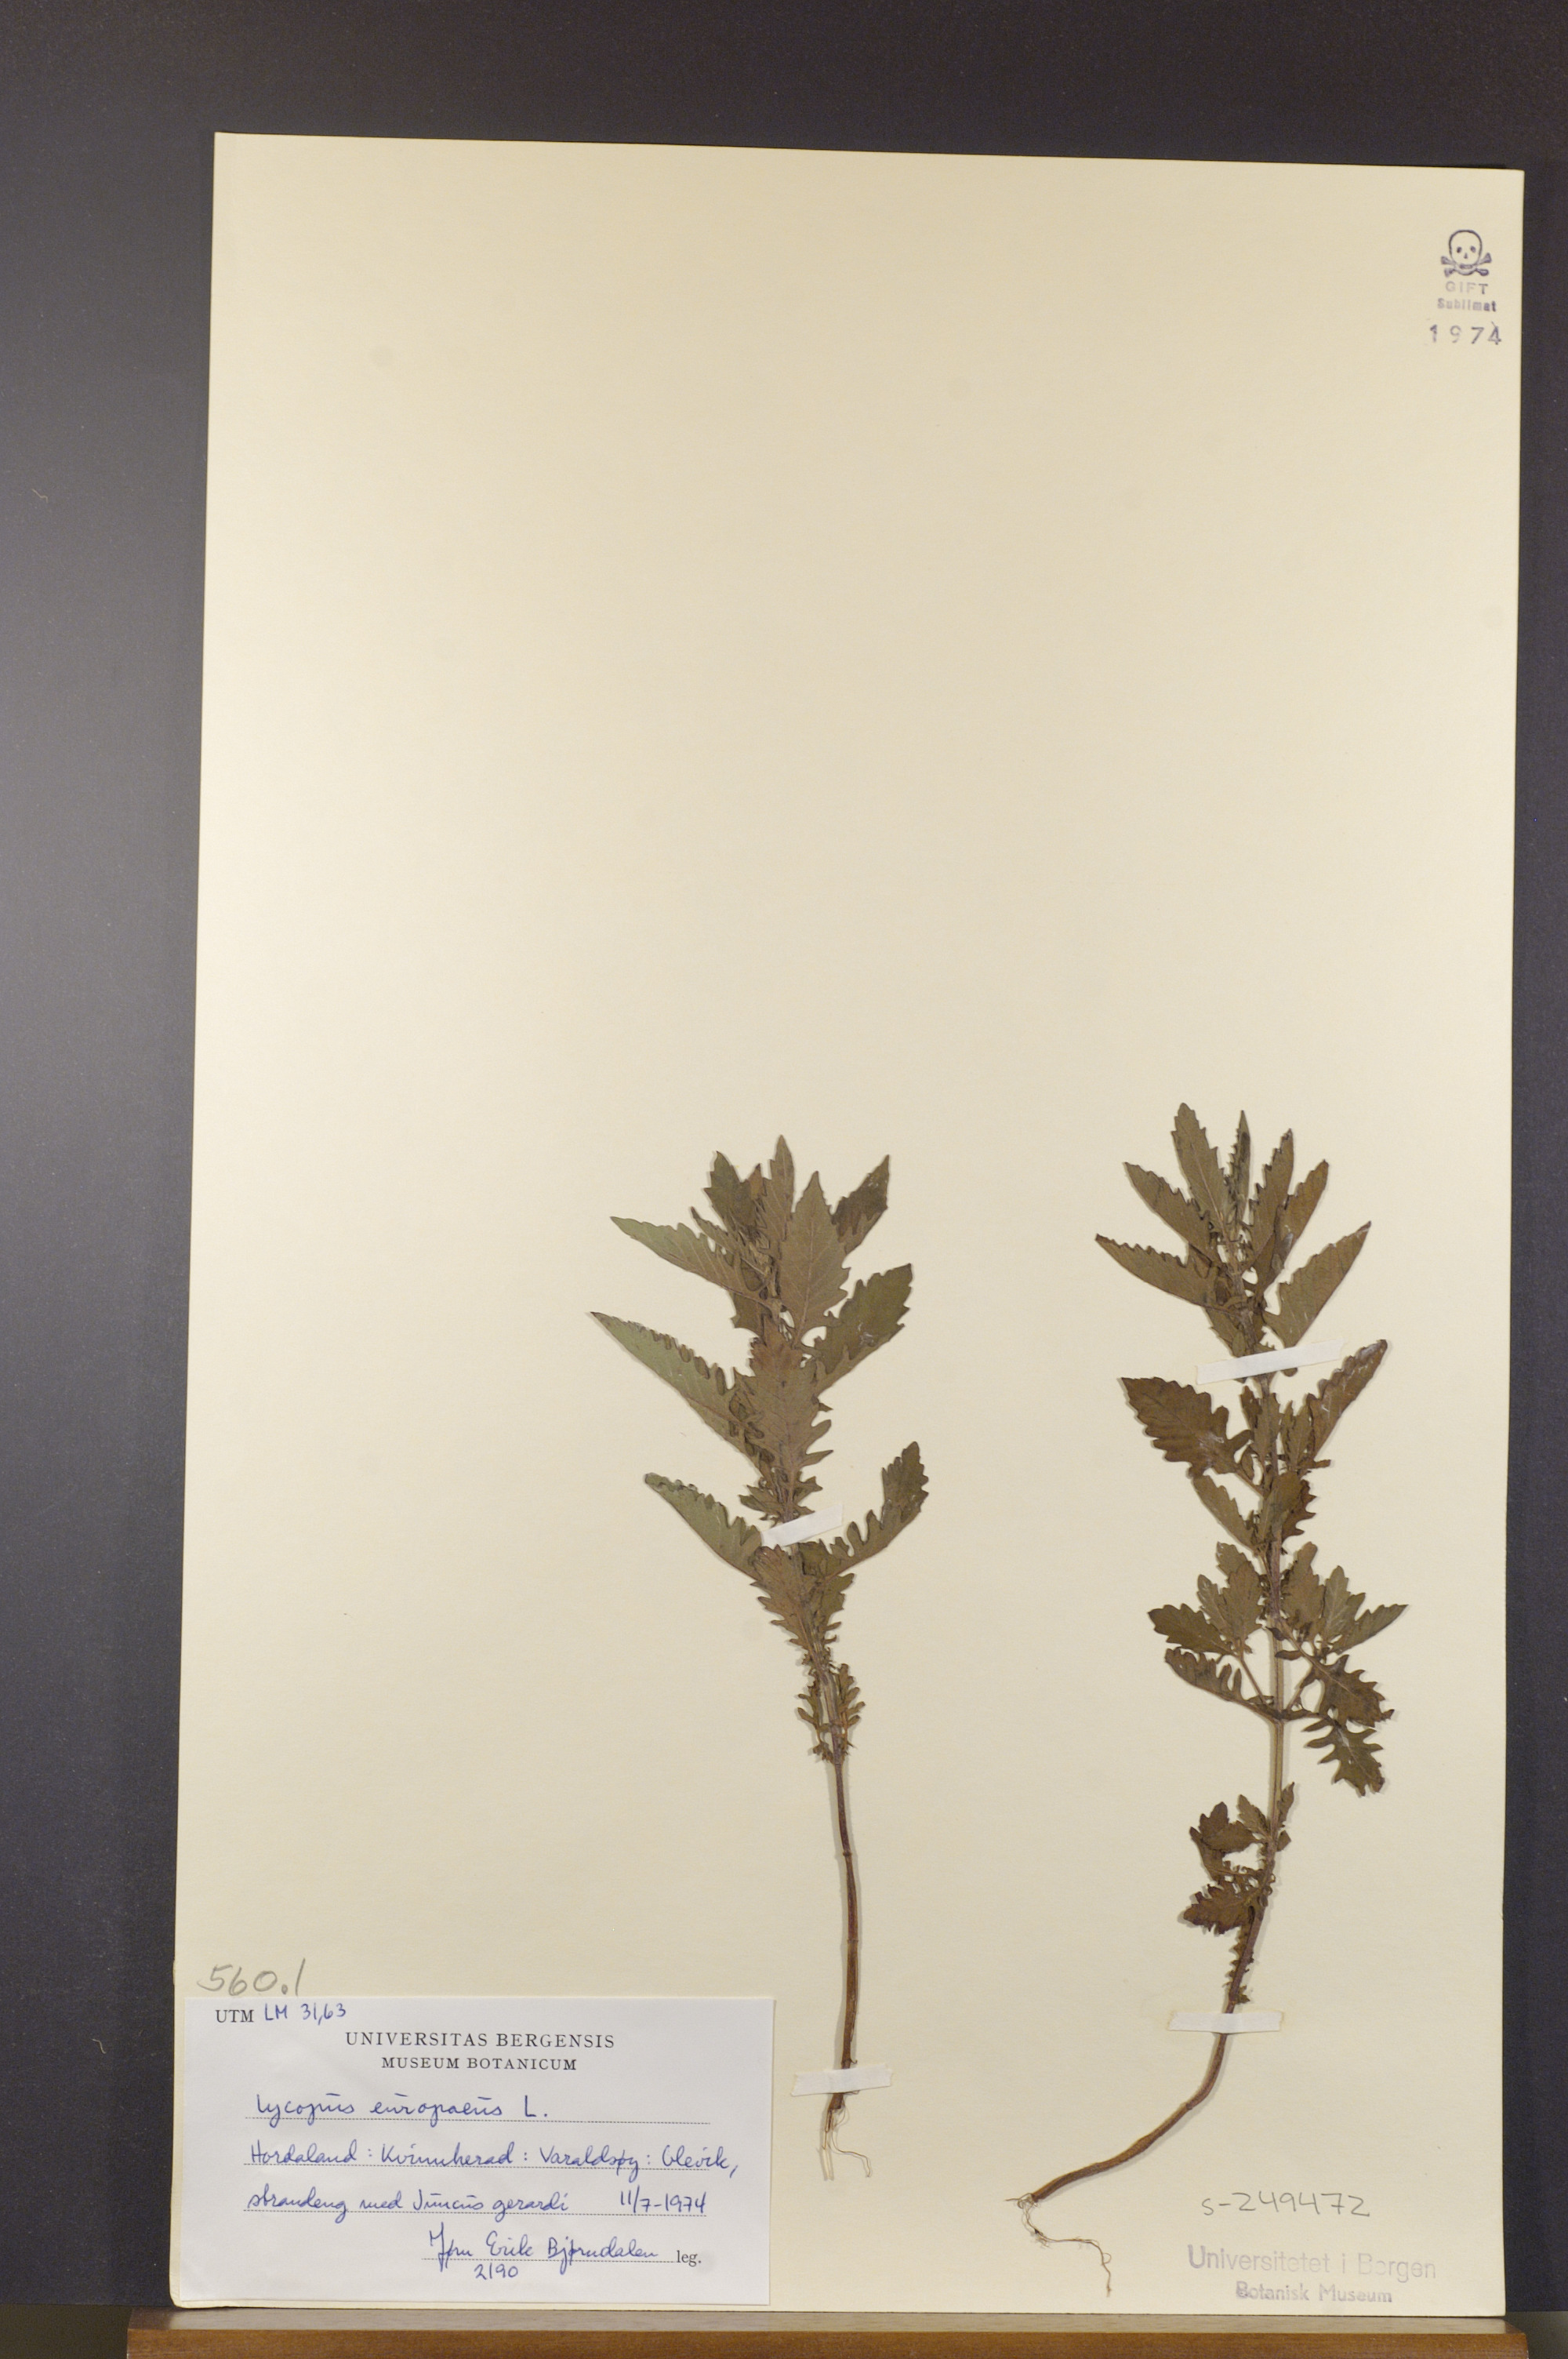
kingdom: Plantae
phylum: Tracheophyta
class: Magnoliopsida
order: Lamiales
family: Lamiaceae
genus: Lycopus
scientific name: Lycopus europaeus
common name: European bugleweed
